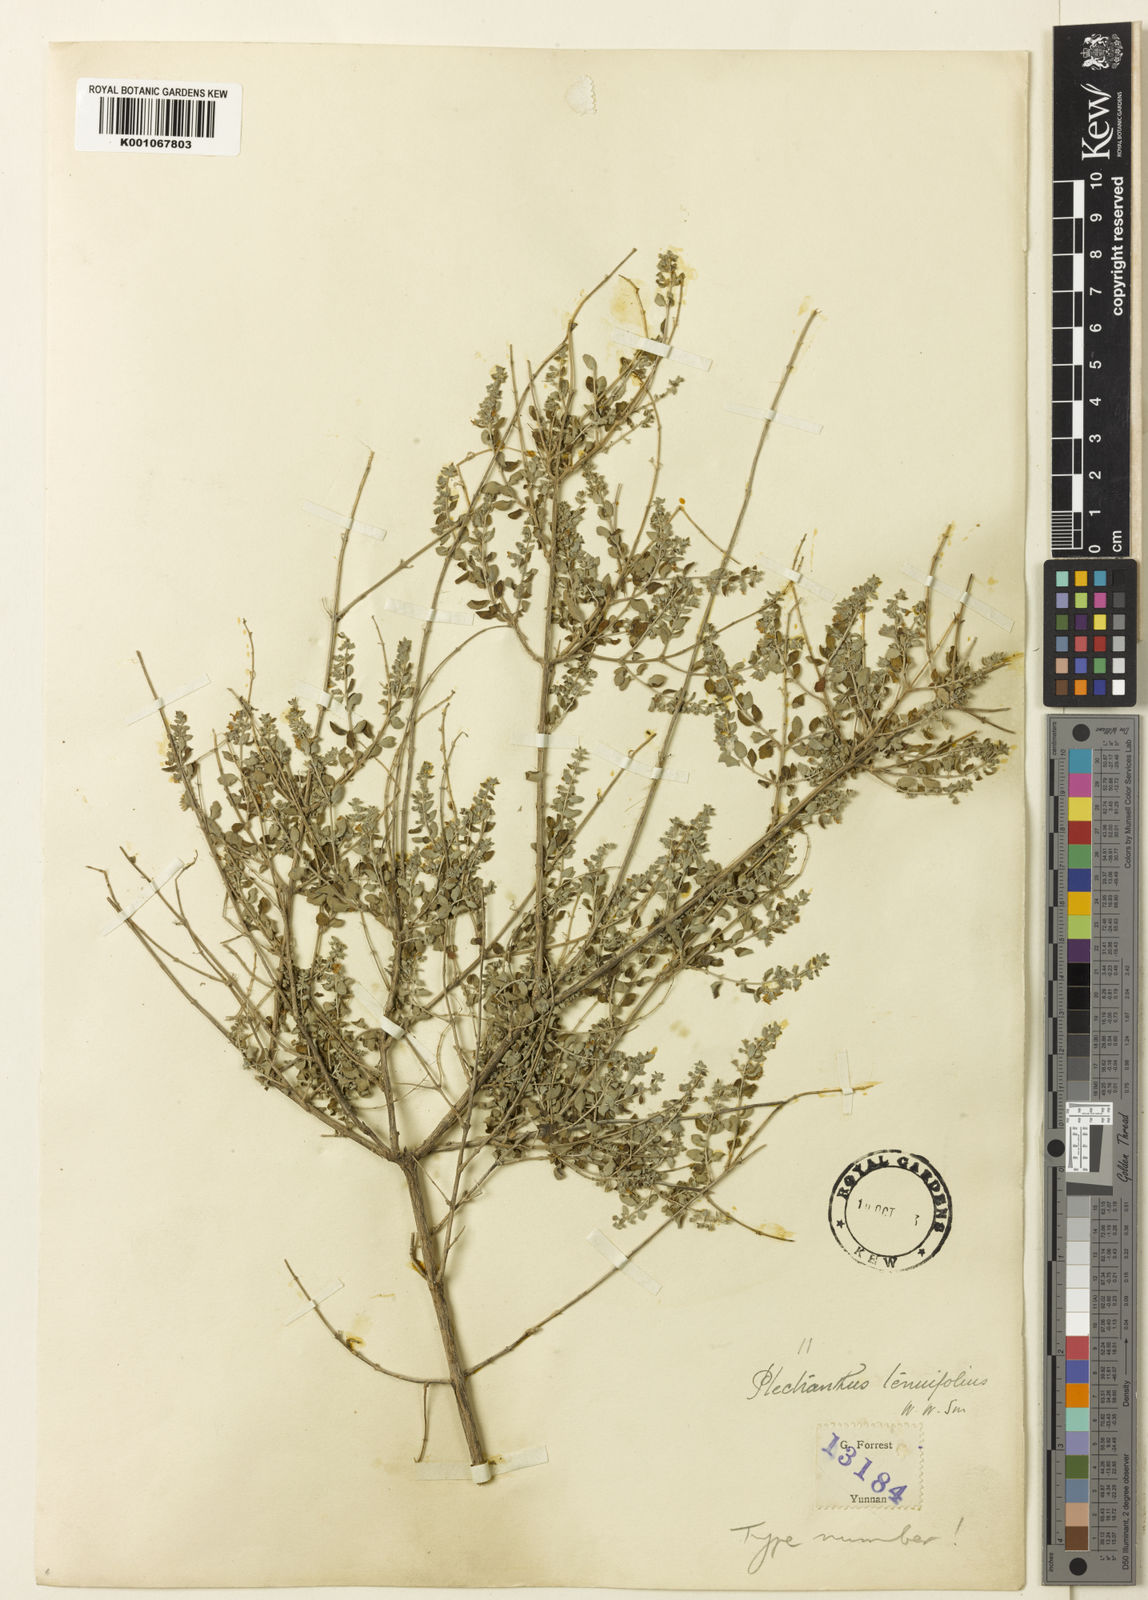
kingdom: Plantae
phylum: Tracheophyta
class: Magnoliopsida
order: Lamiales
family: Lamiaceae
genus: Isodon
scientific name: Isodon
